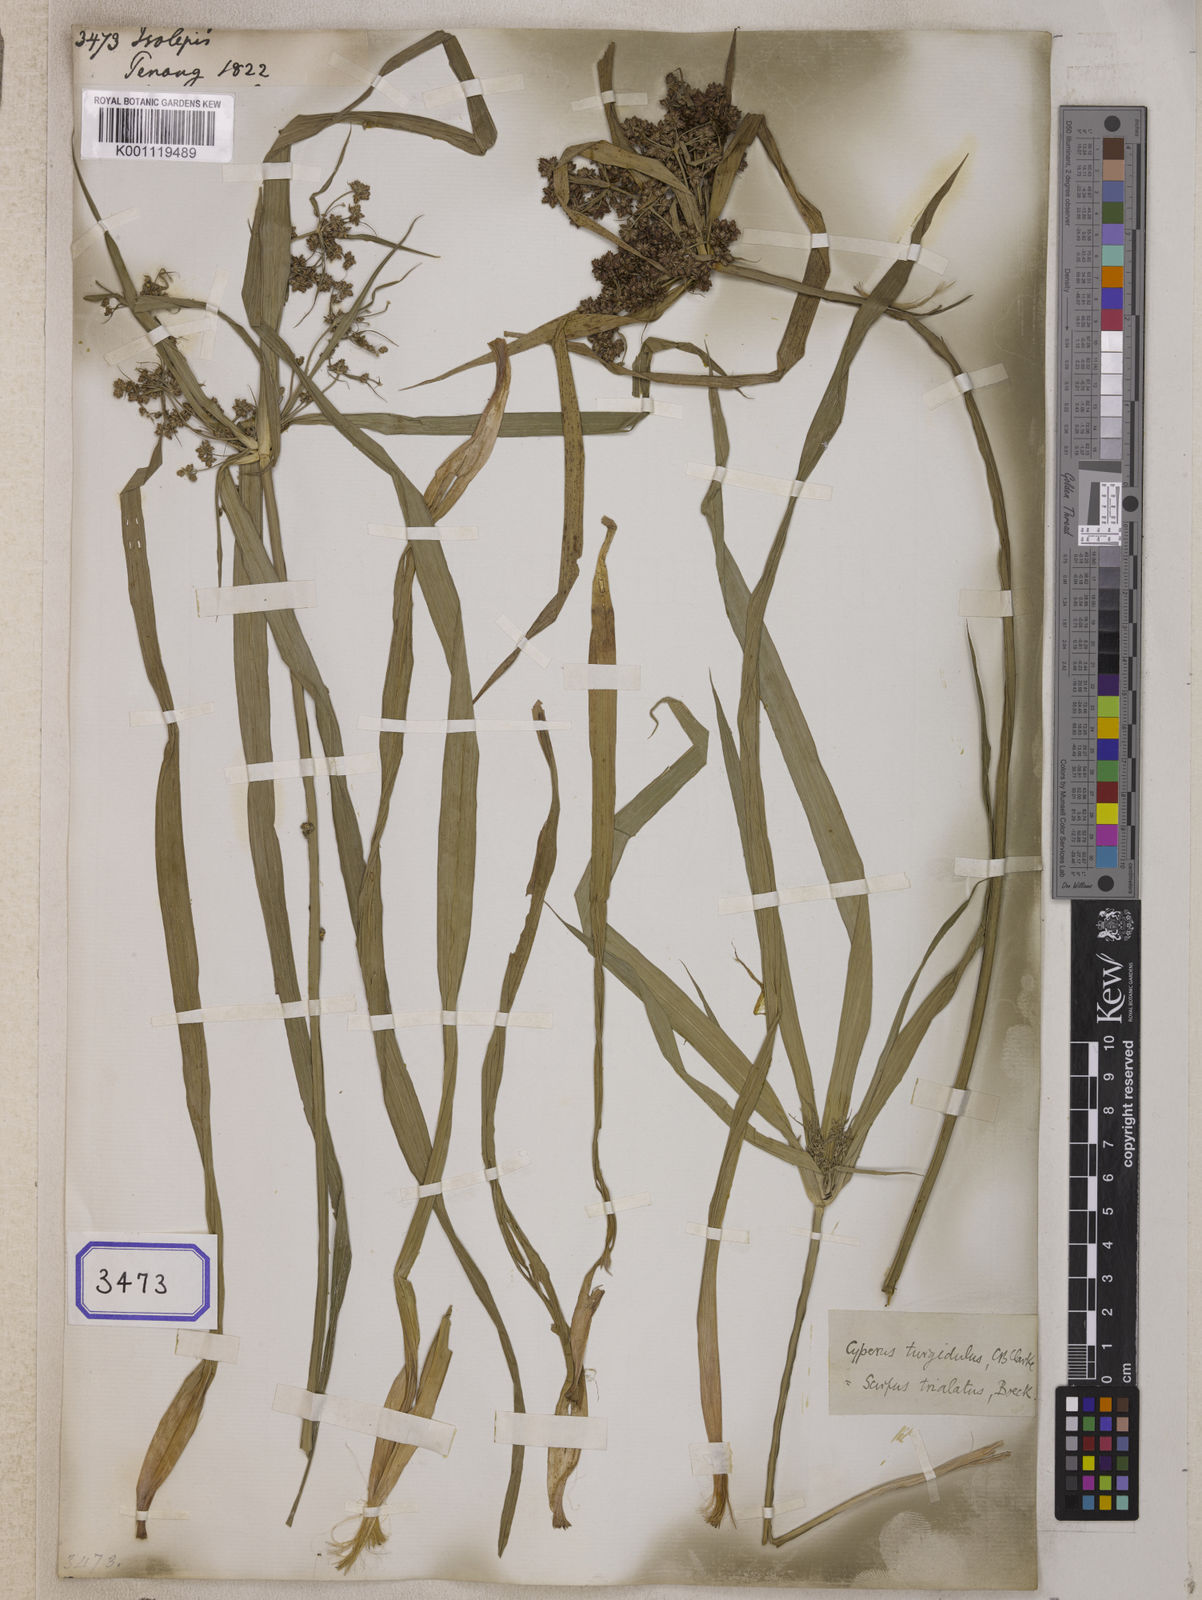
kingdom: Plantae
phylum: Tracheophyta
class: Liliopsida
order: Poales
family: Cyperaceae
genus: Isolepis
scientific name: Isolepis
